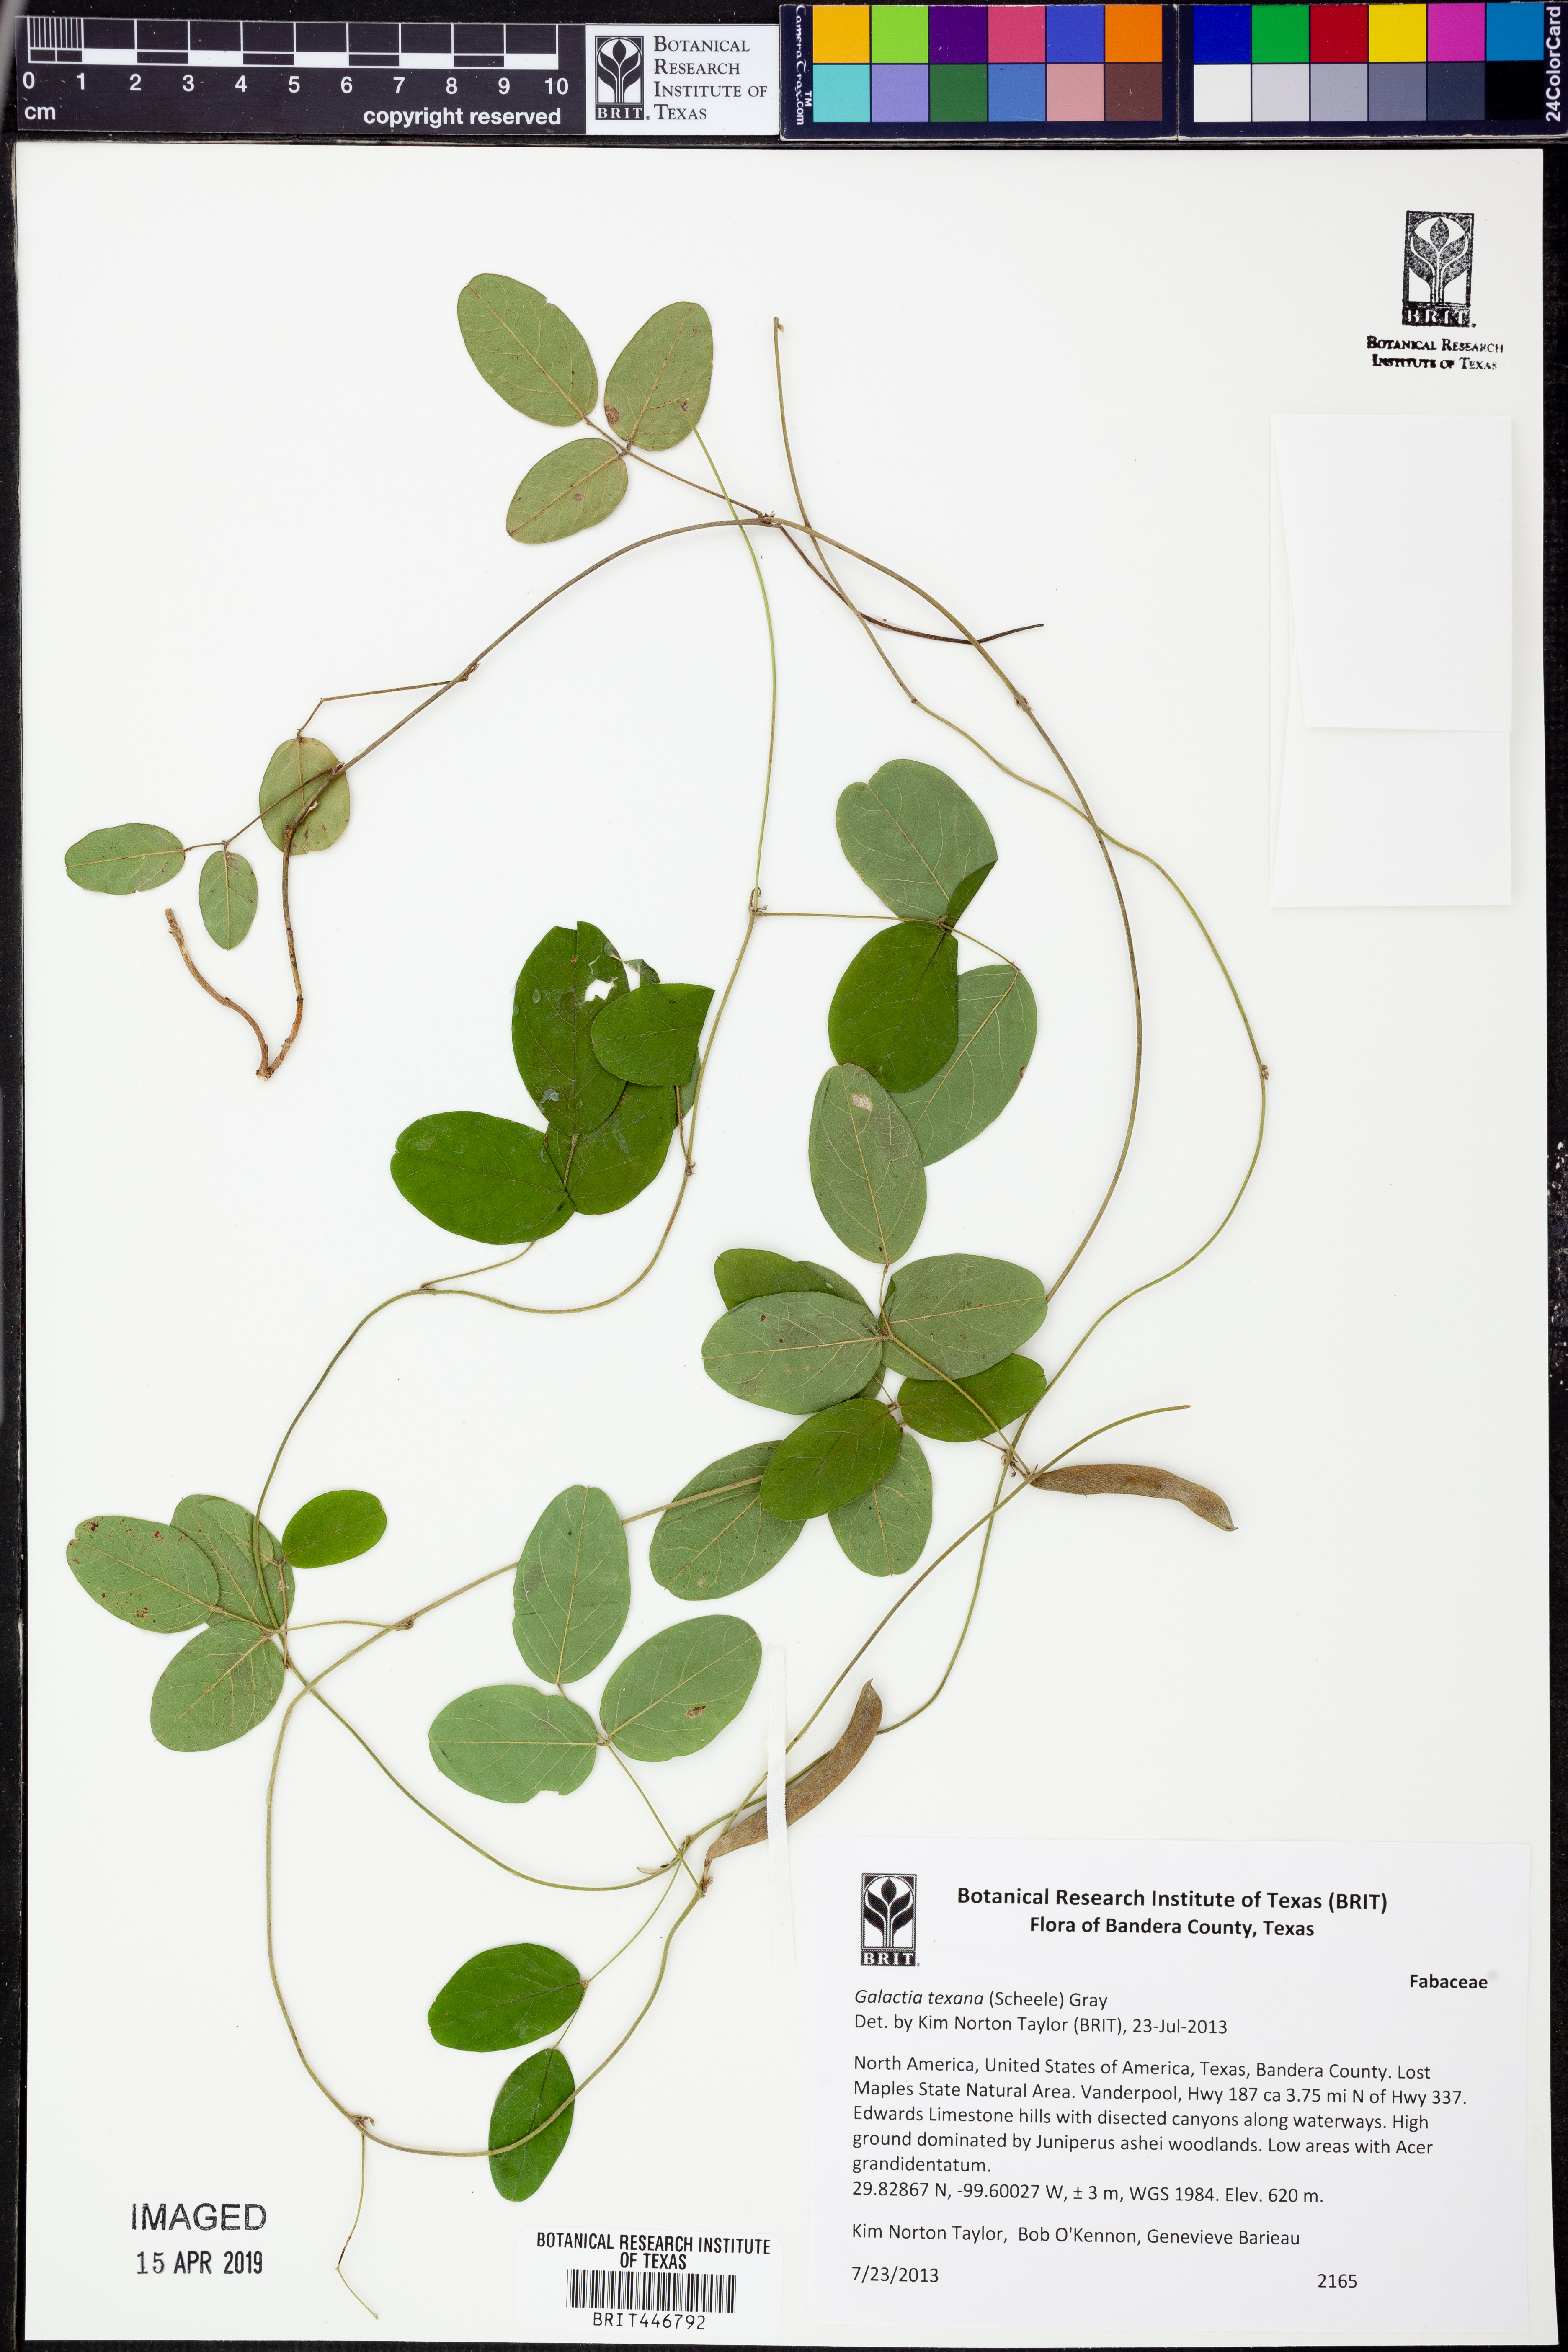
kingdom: Plantae
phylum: Tracheophyta
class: Magnoliopsida
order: Fabales
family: Fabaceae
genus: Galactia
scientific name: Galactia texana
